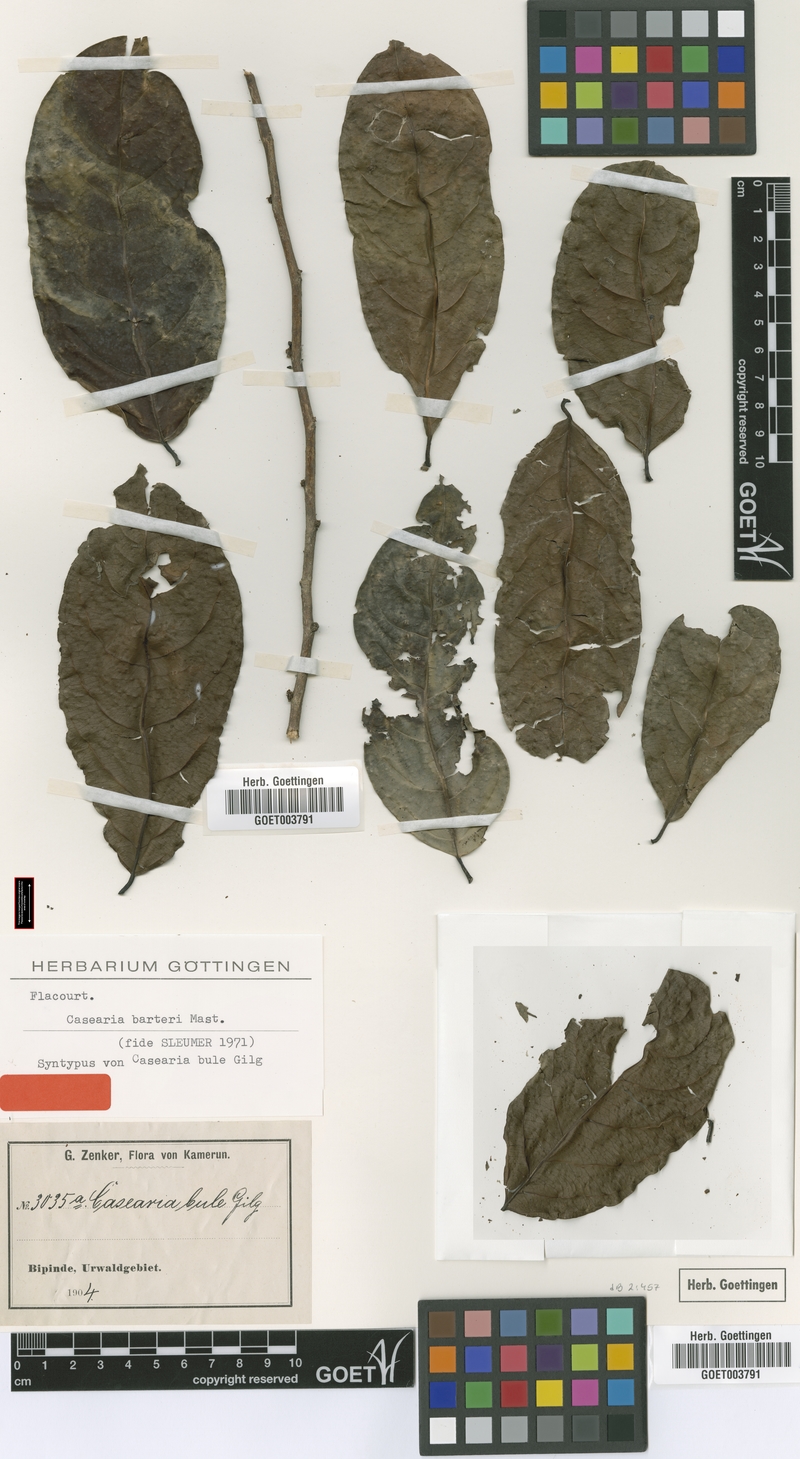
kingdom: Plantae
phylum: Tracheophyta
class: Magnoliopsida
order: Malpighiales
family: Salicaceae
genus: Casearia
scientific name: Casearia barteri
